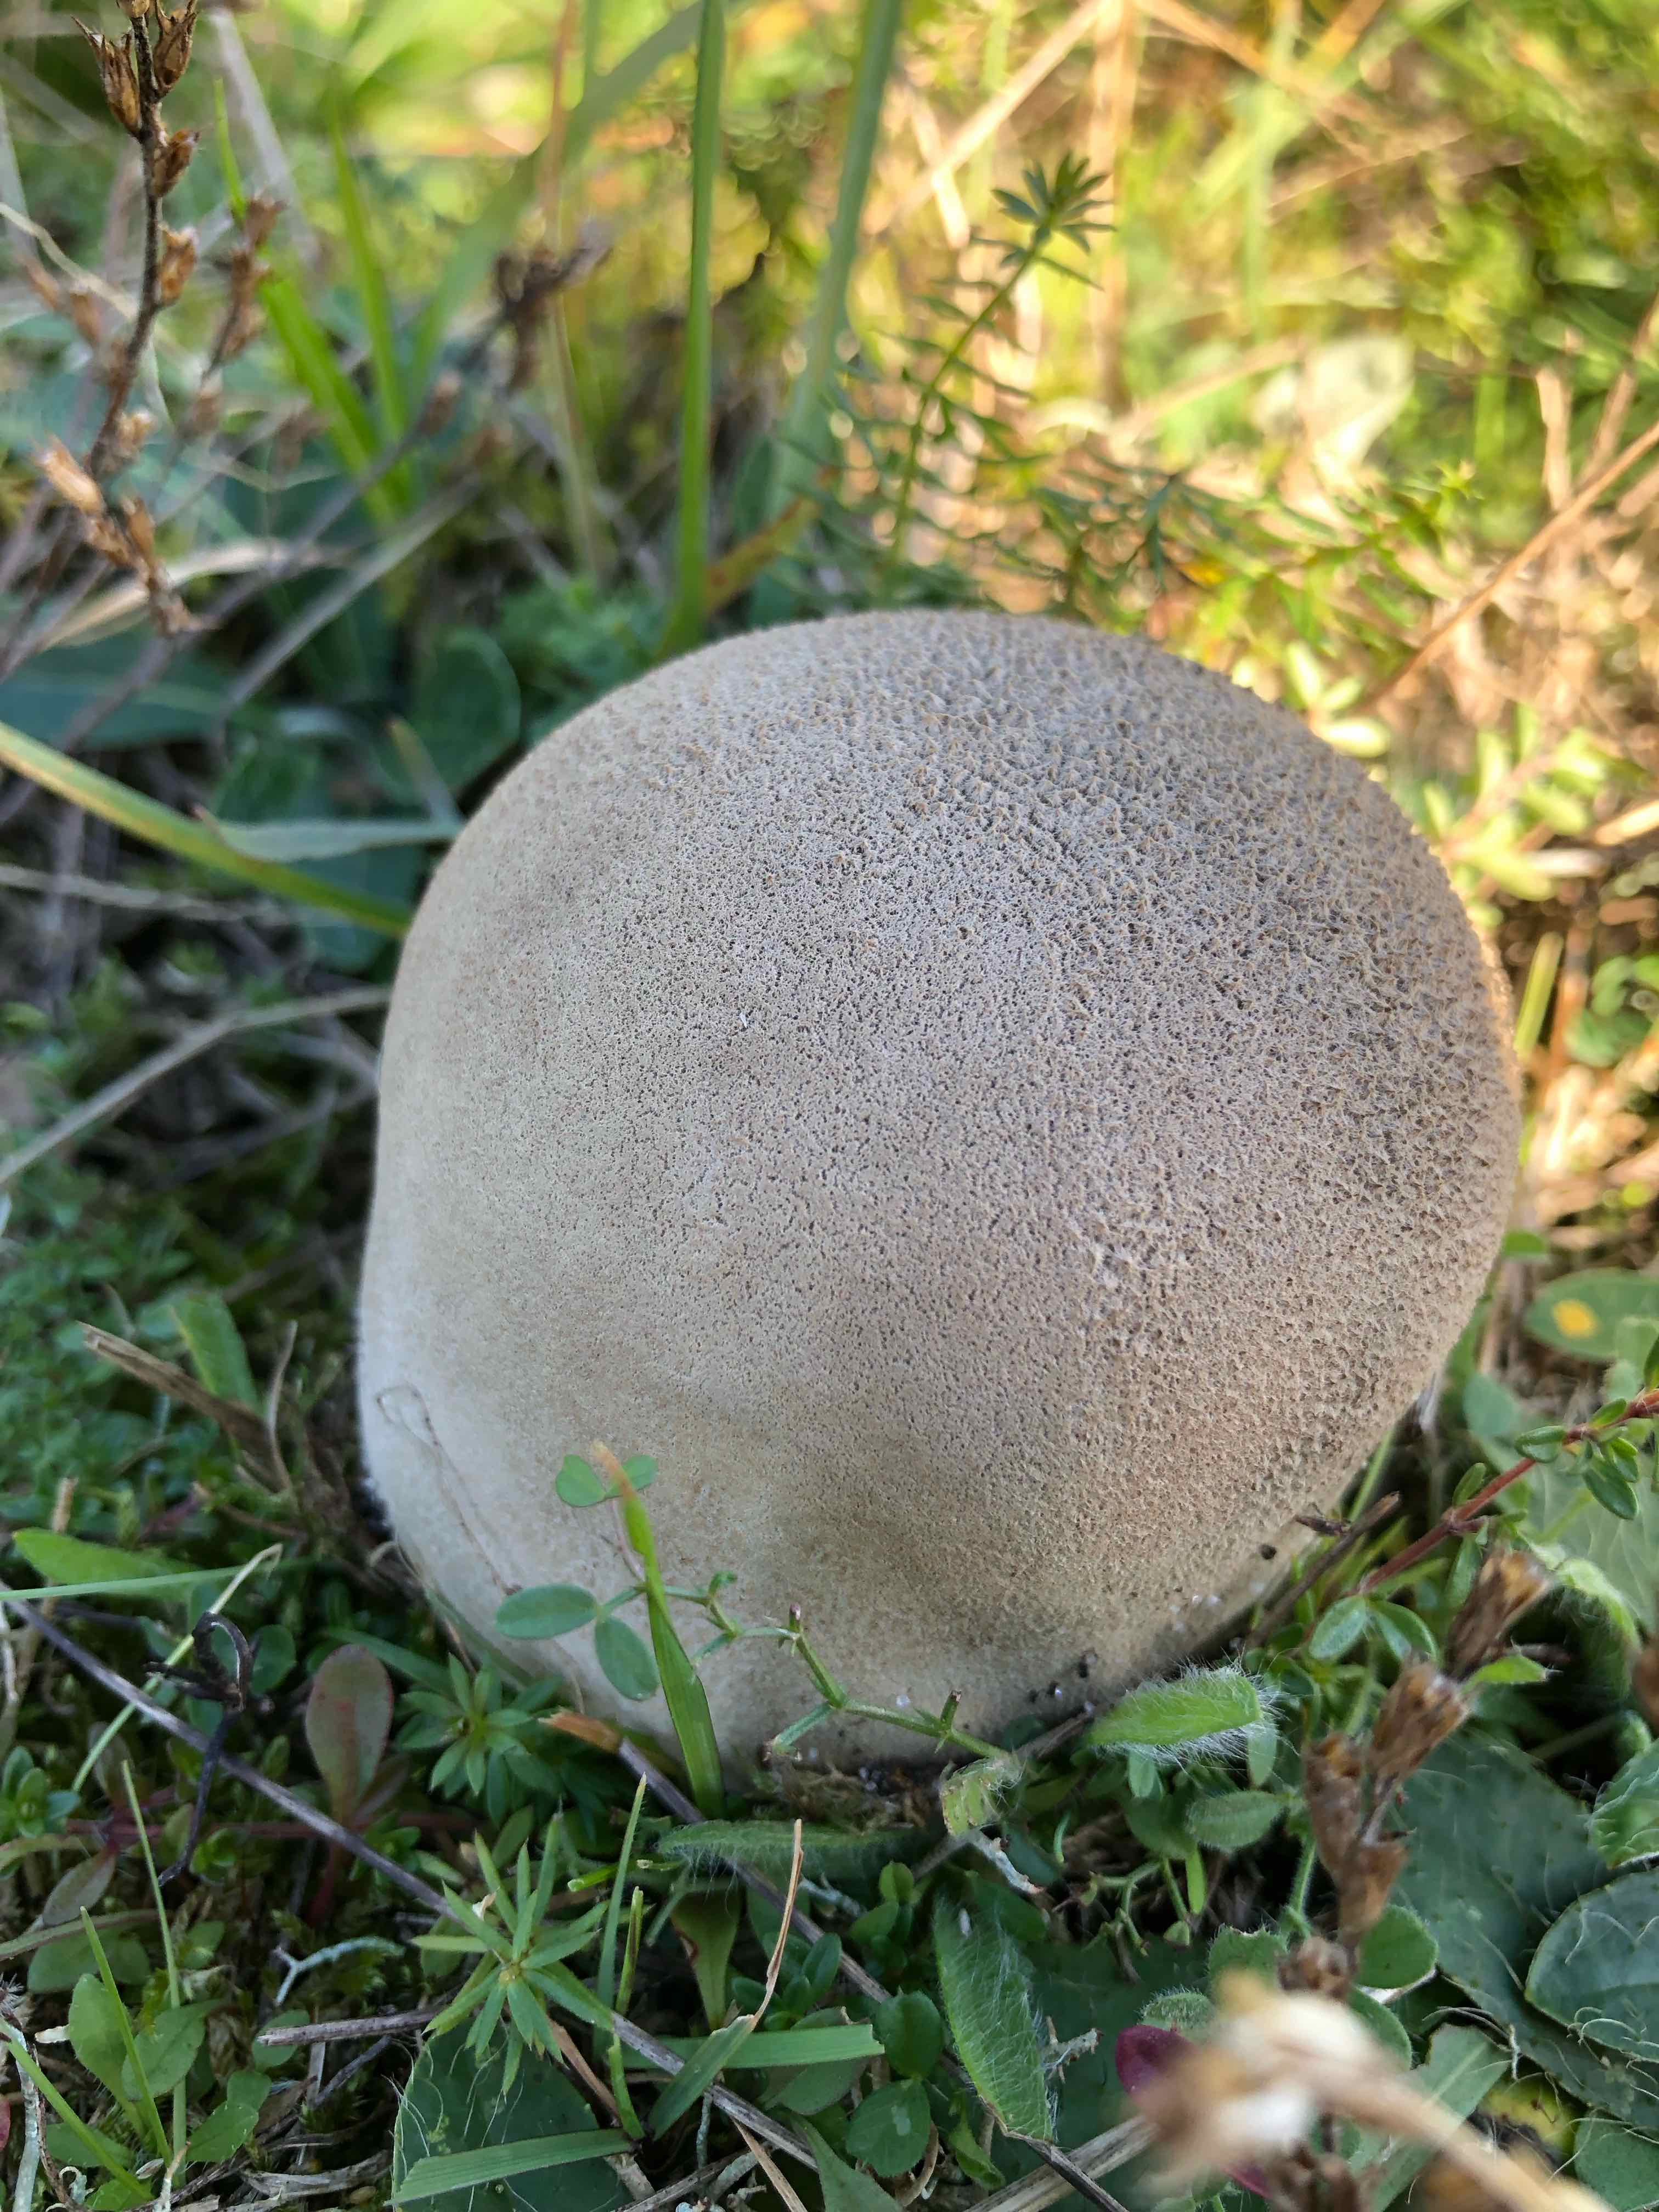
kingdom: Fungi
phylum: Basidiomycota
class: Agaricomycetes
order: Agaricales
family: Lycoperdaceae
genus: Bovistella
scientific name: Bovistella utriformis
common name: skællet støvbold
